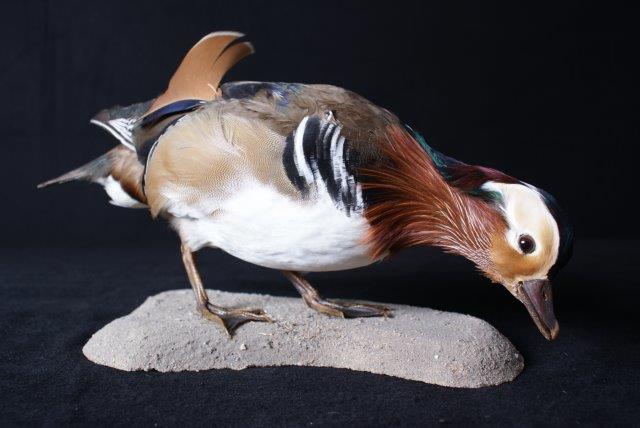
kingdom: Animalia
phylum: Chordata
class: Aves
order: Anseriformes
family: Anatidae
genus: Aix
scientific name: Aix galericulata
